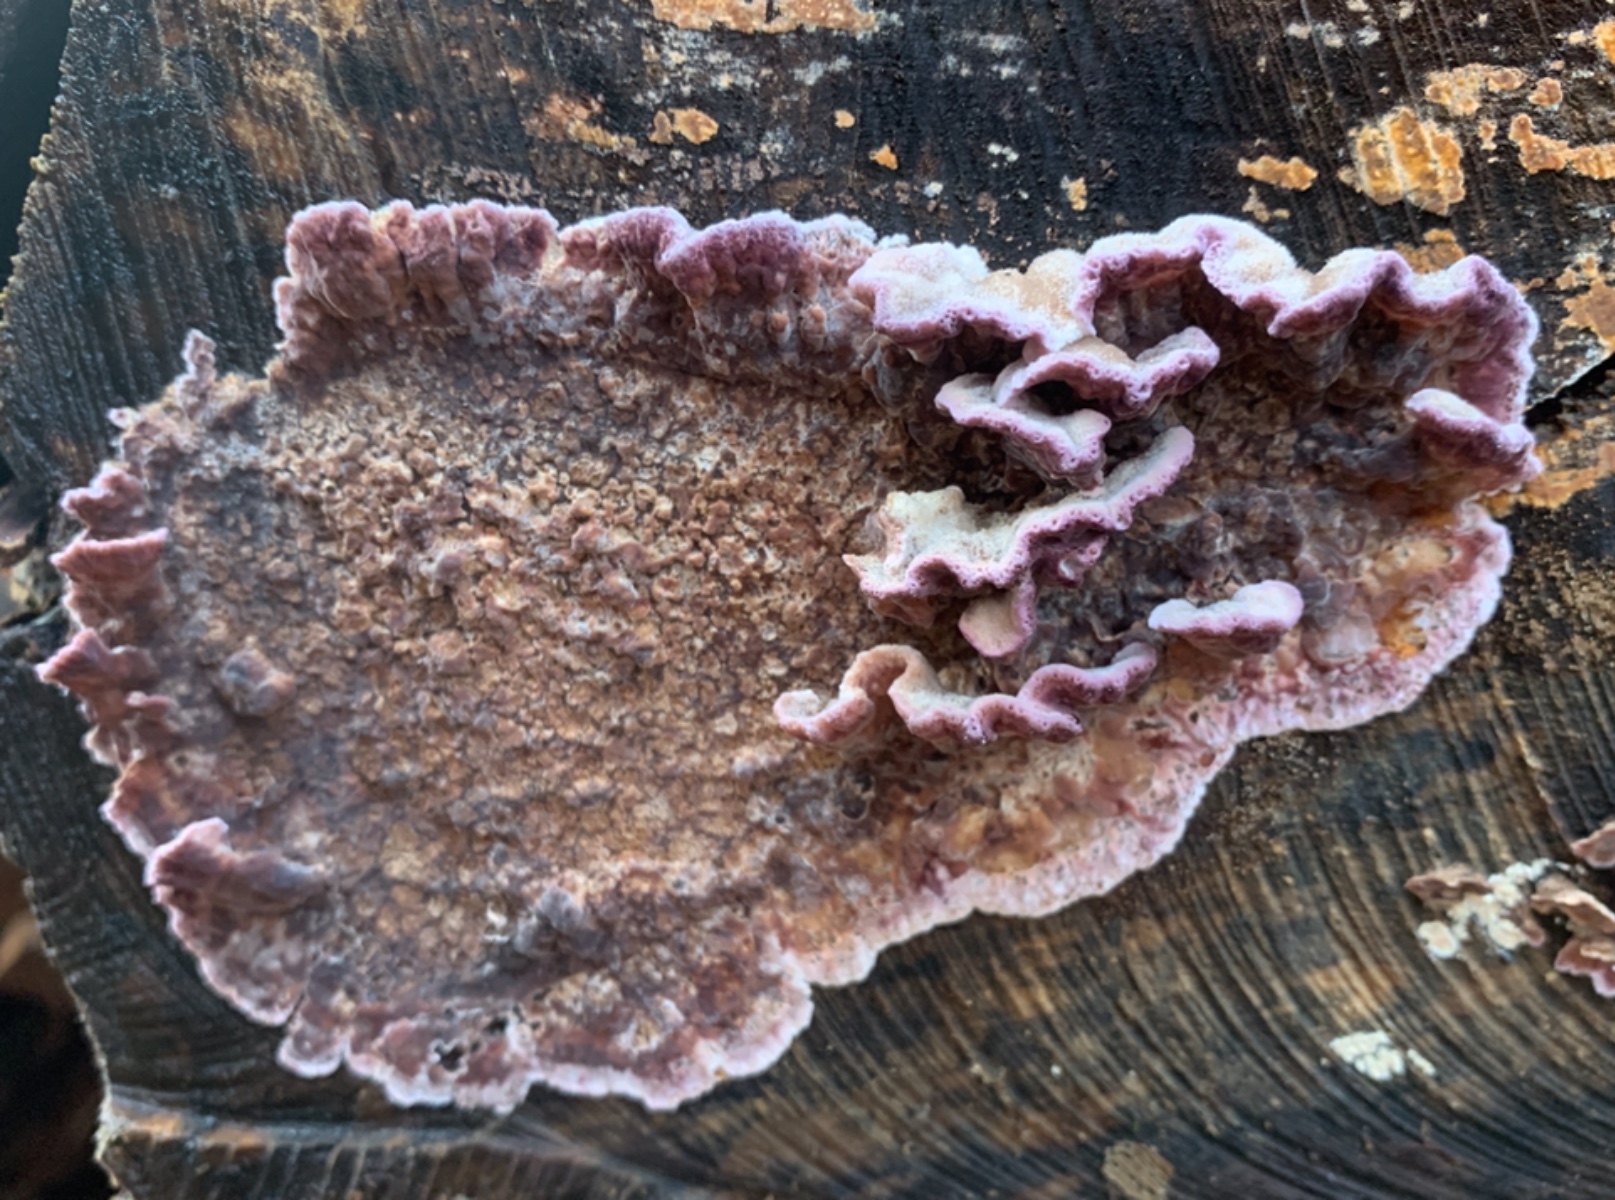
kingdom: Fungi
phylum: Basidiomycota
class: Agaricomycetes
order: Agaricales
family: Cyphellaceae
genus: Chondrostereum
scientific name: Chondrostereum purpureum
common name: purpurlædersvamp
